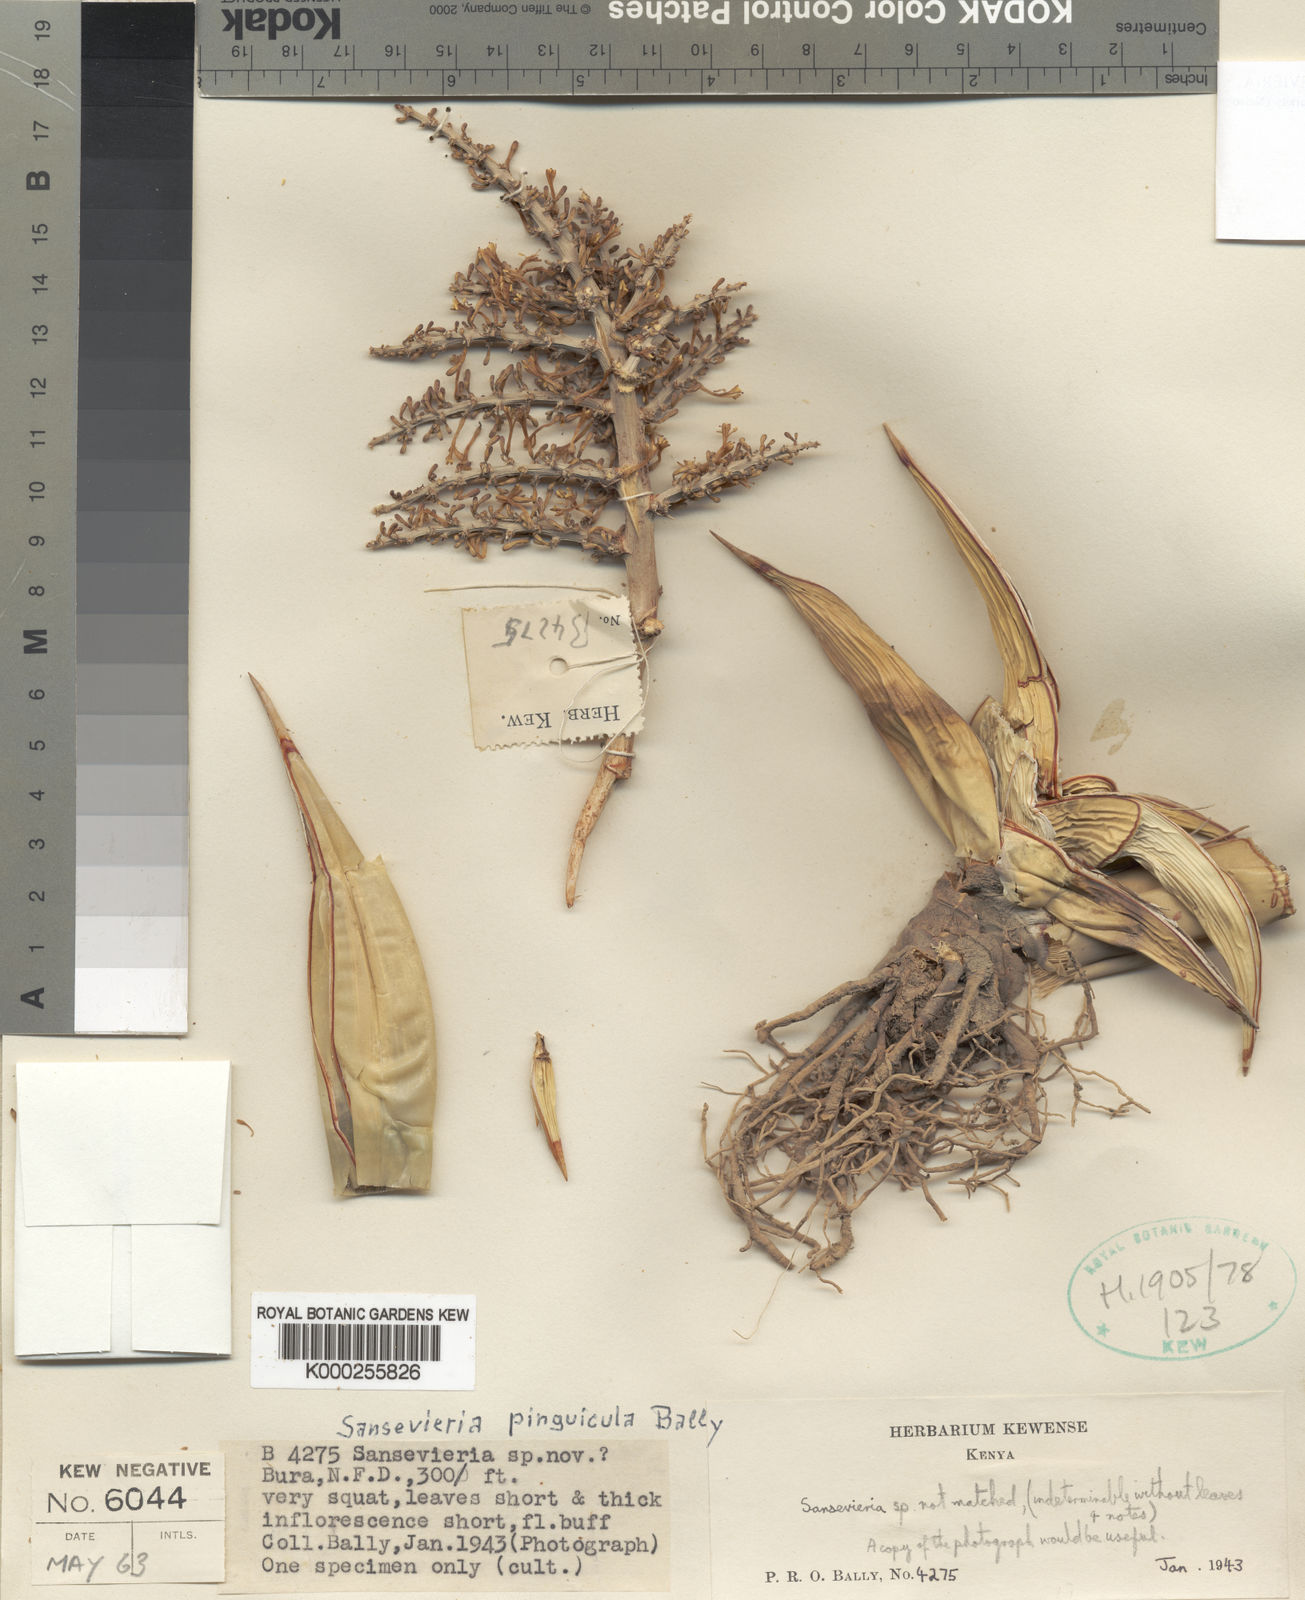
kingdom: Plantae
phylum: Tracheophyta
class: Liliopsida
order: Asparagales
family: Asparagaceae
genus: Dracaena
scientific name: Dracaena pinguicula
